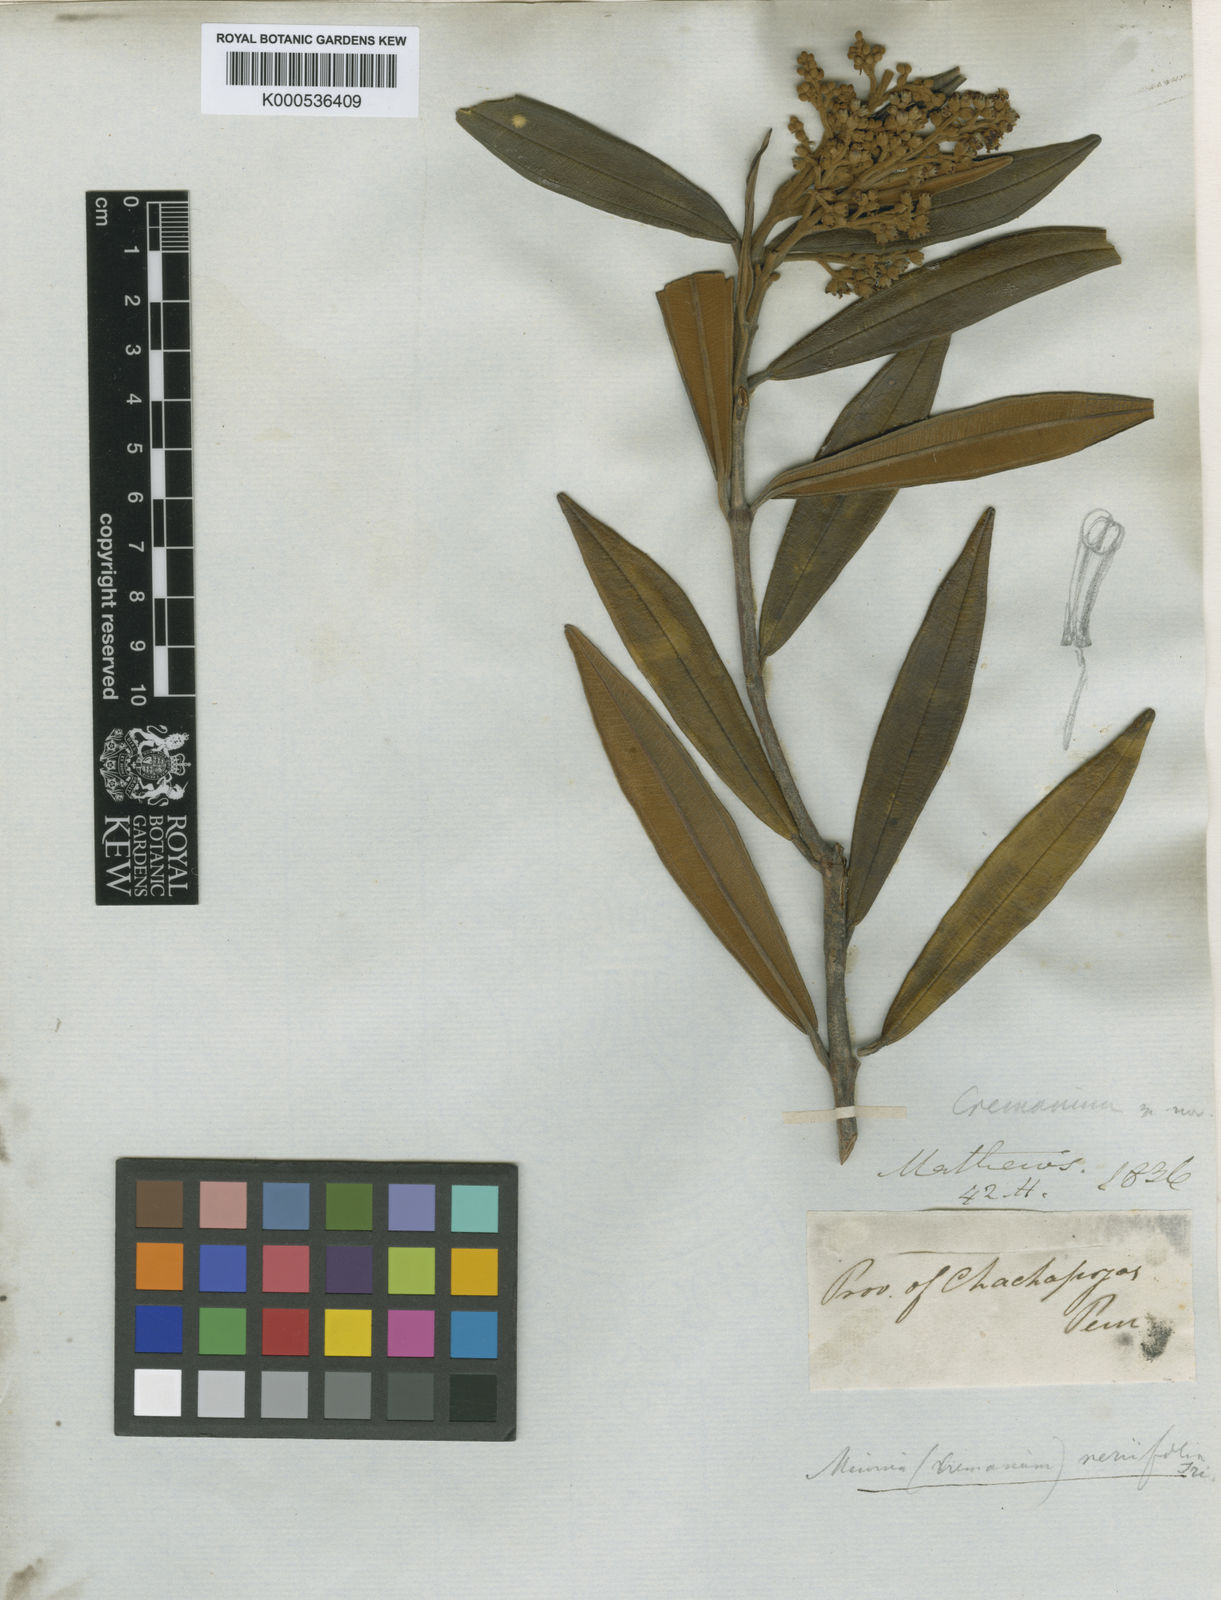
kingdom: Plantae
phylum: Tracheophyta
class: Magnoliopsida
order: Myrtales
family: Melastomataceae
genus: Miconia
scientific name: Miconia neriifolia
